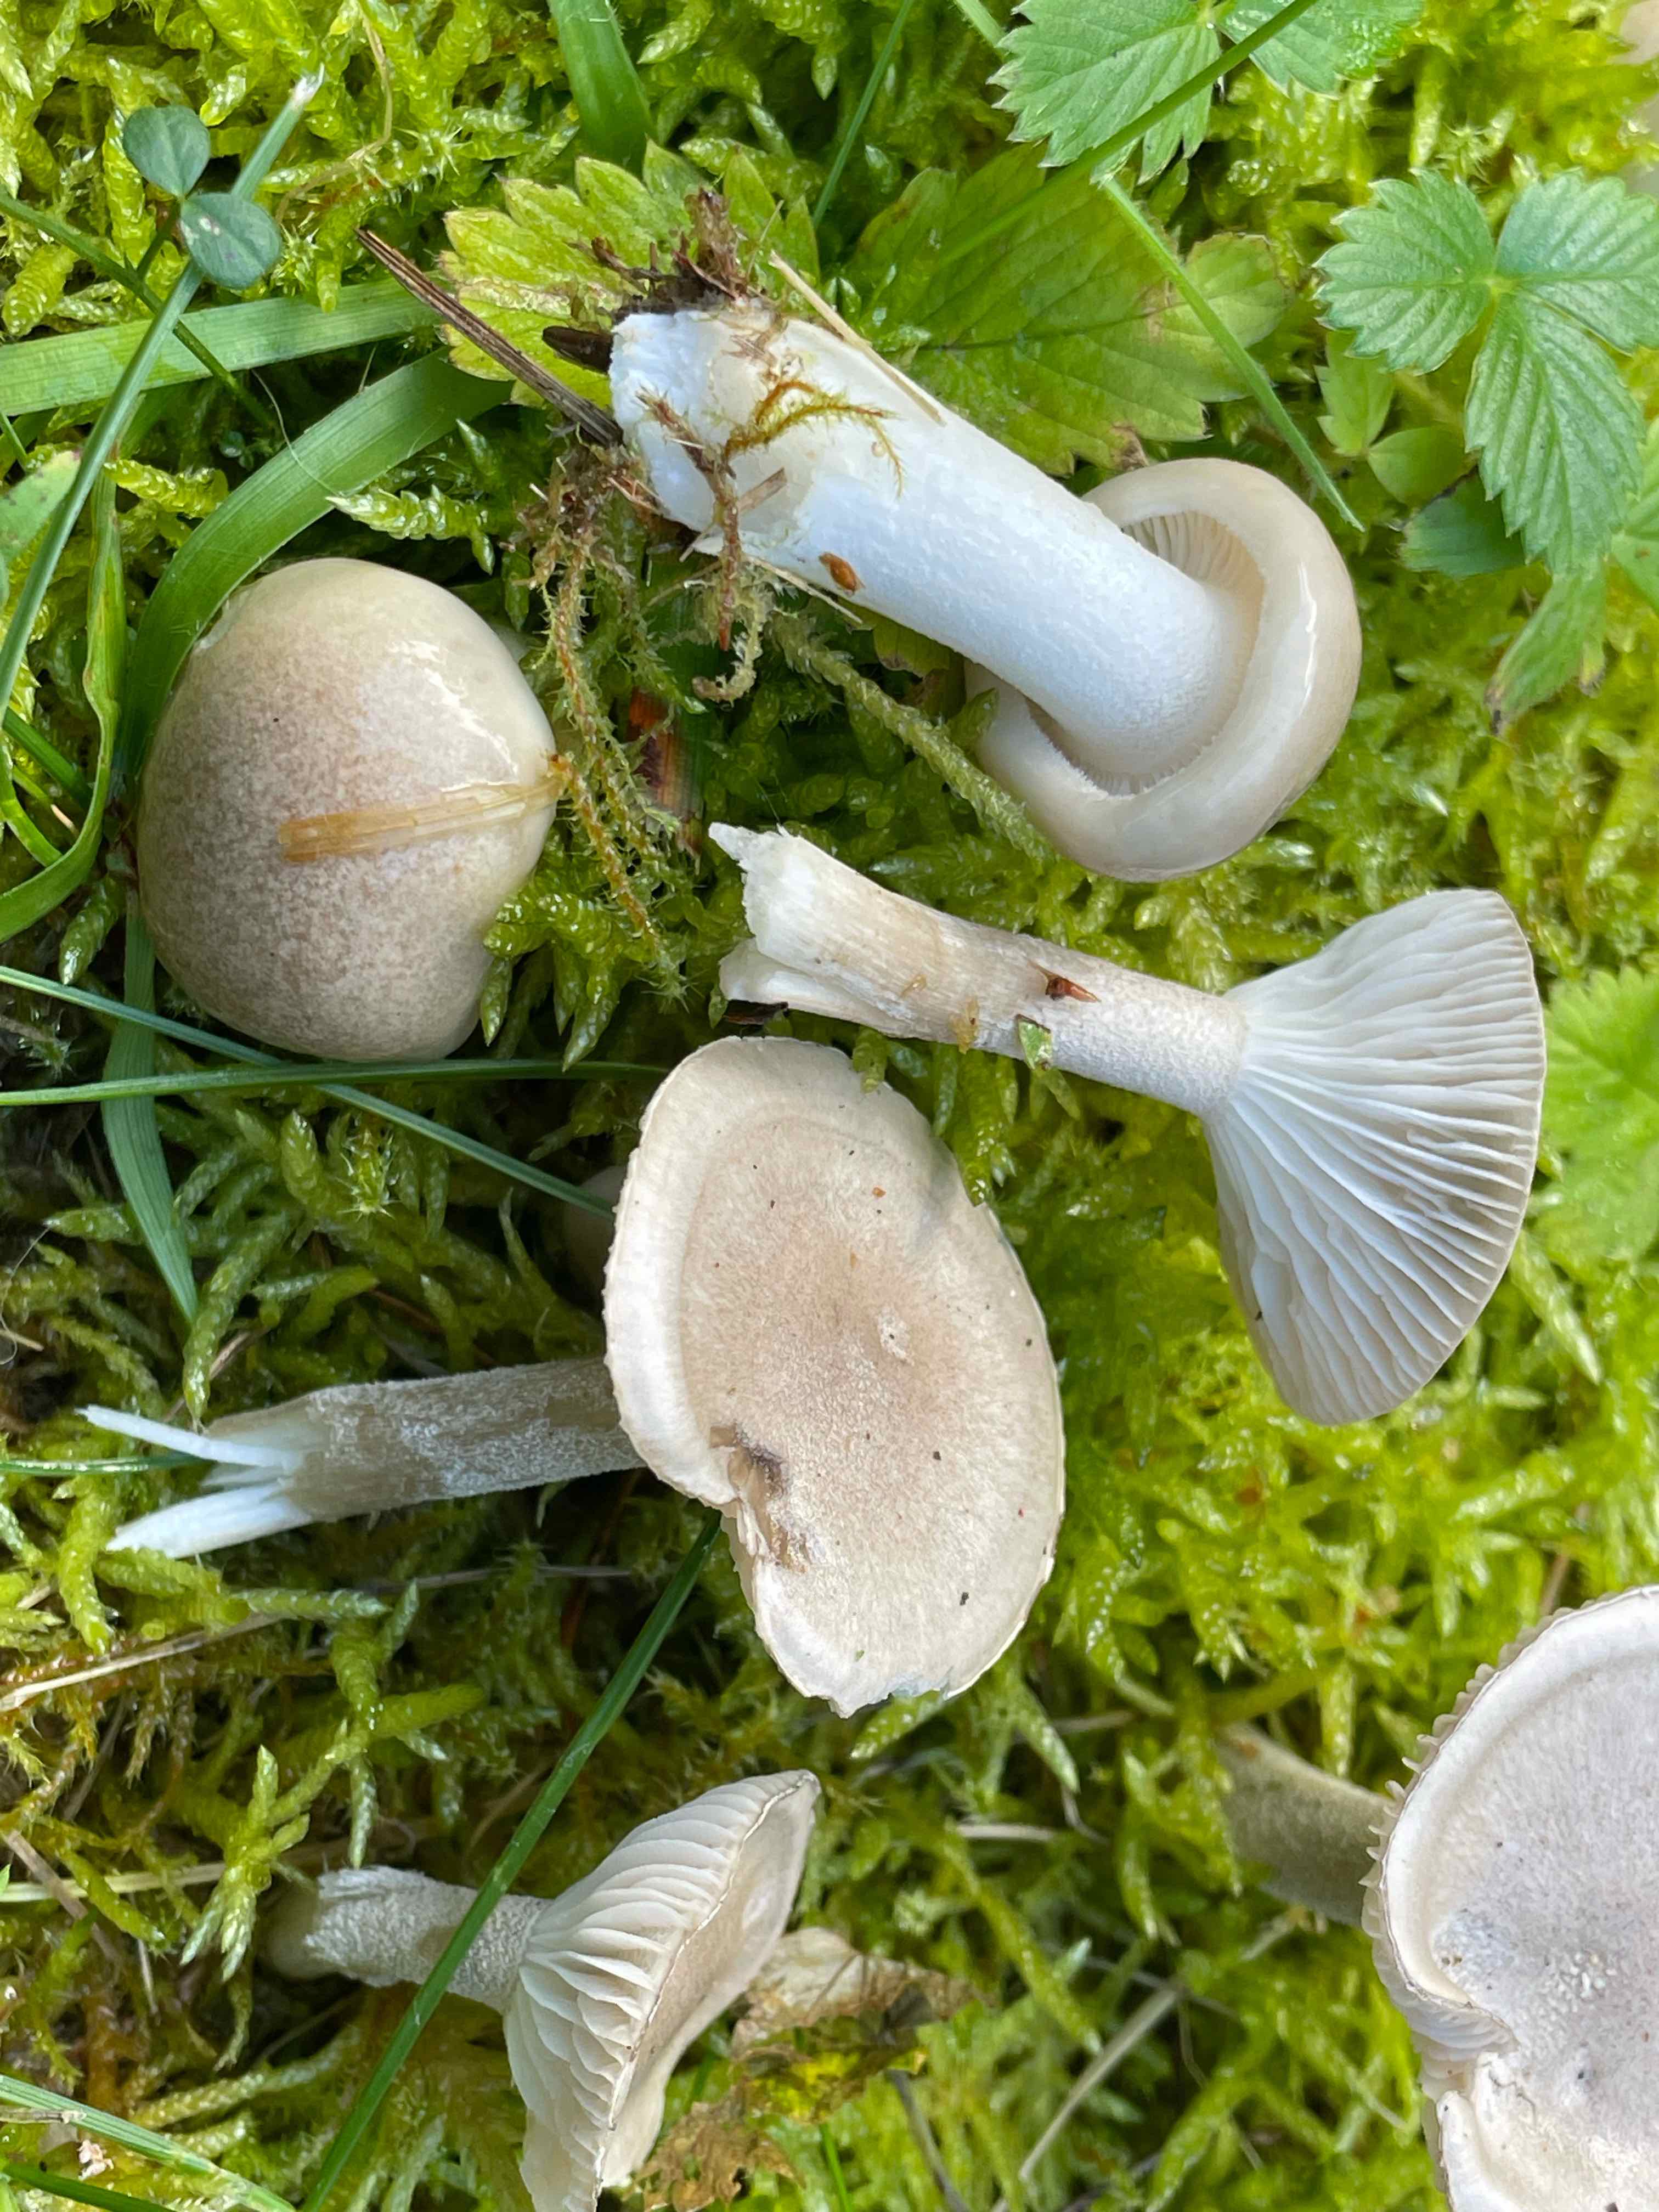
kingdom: Fungi
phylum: Basidiomycota
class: Agaricomycetes
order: Agaricales
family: Hygrophoraceae
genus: Hygrophorus
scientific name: Hygrophorus agathosmus
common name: vellugtende sneglehat
